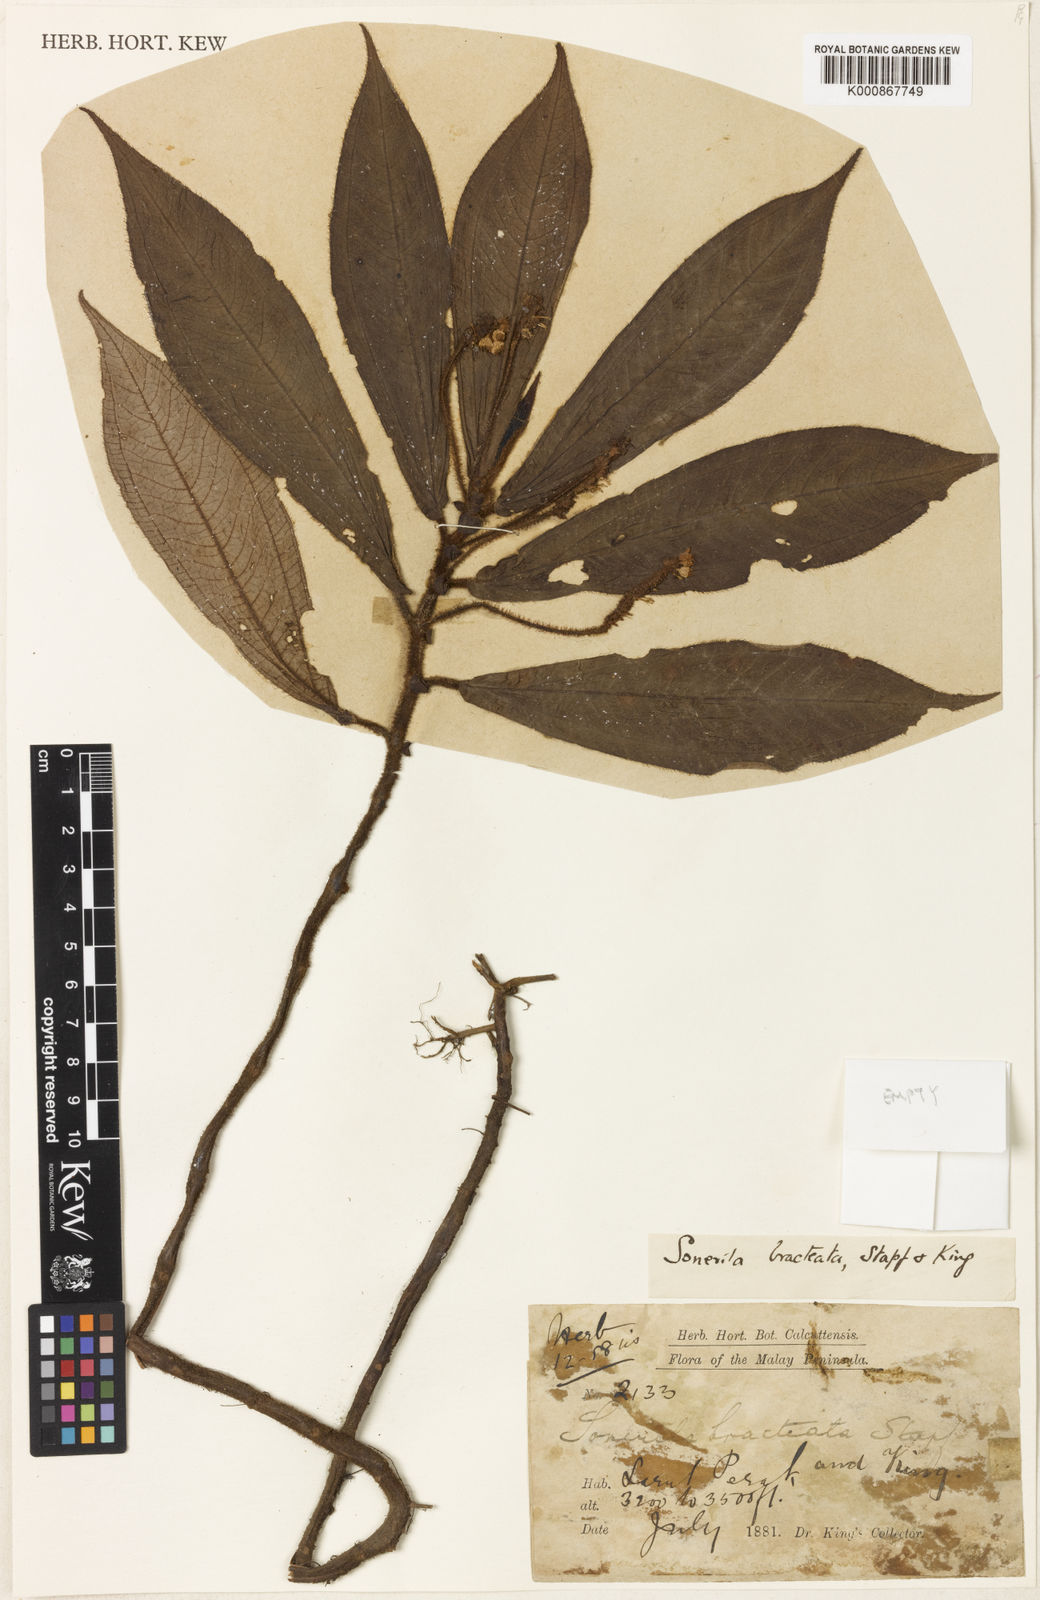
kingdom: Plantae
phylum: Tracheophyta
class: Magnoliopsida
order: Myrtales
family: Melastomataceae
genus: Sonerila
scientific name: Sonerila bracteata
